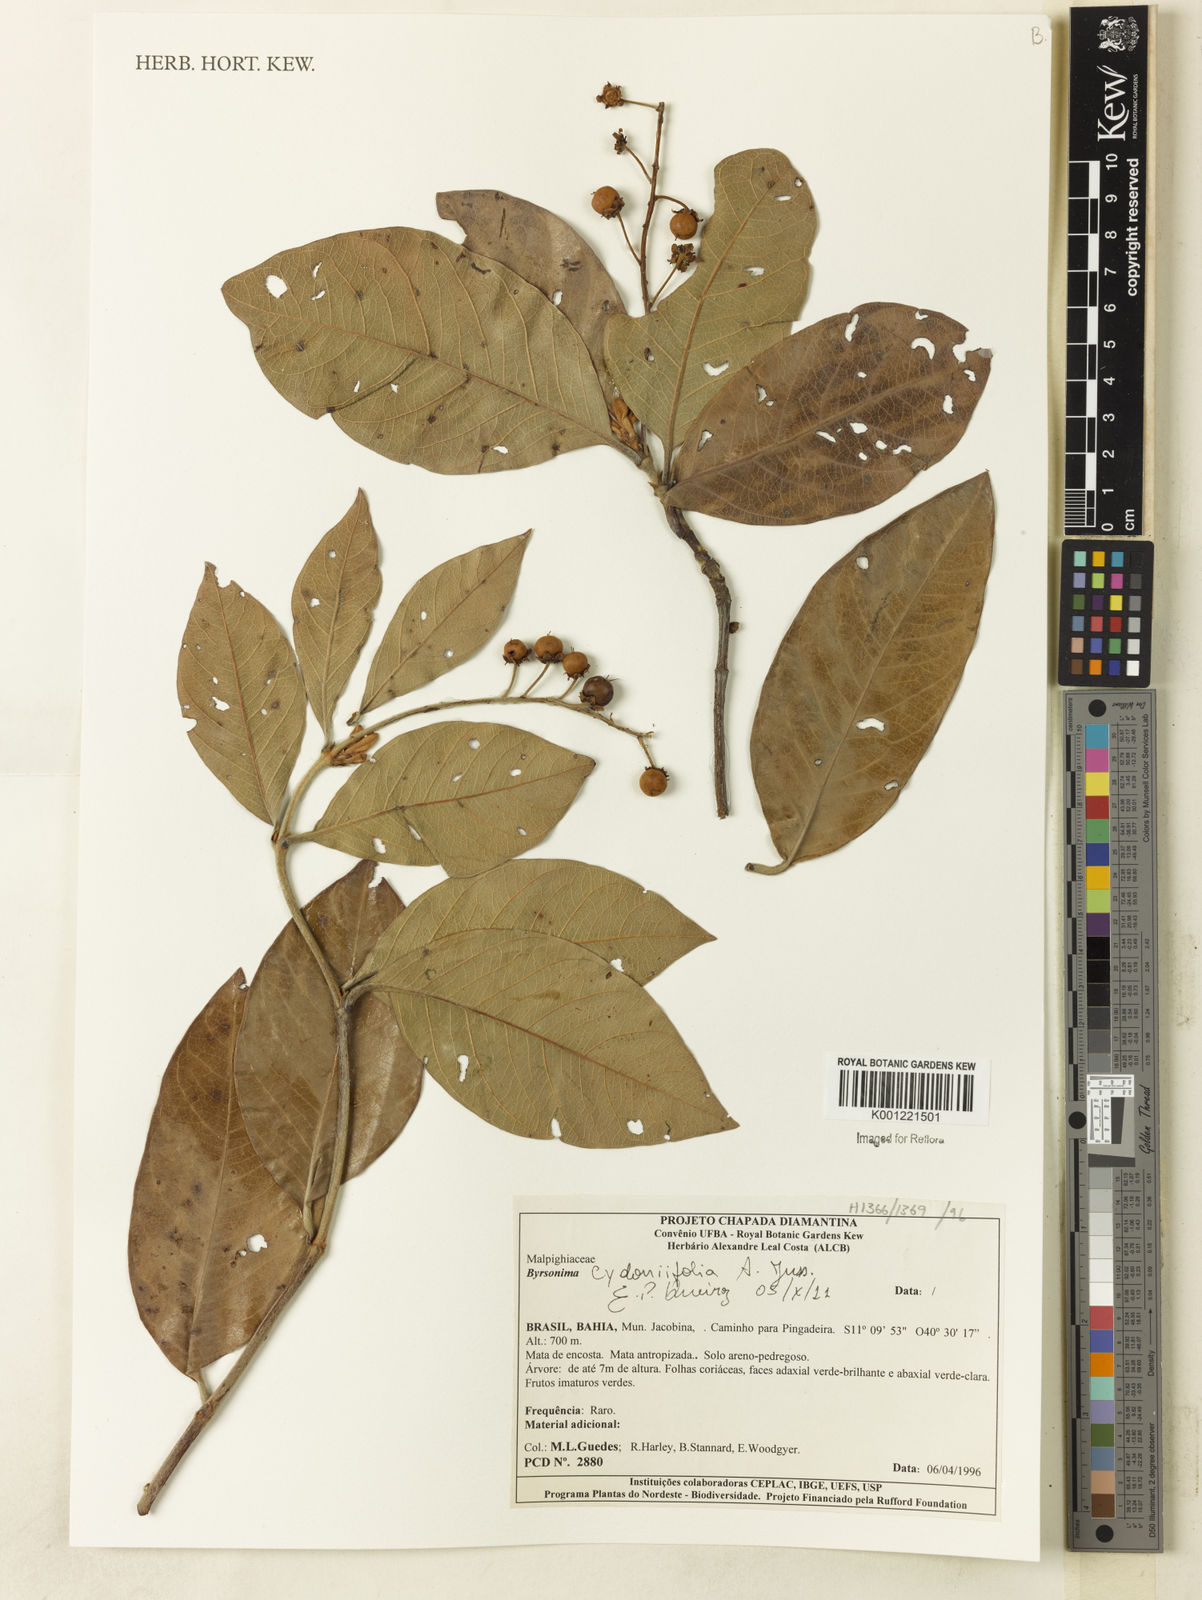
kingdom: Plantae
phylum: Tracheophyta
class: Magnoliopsida
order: Malpighiales
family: Malpighiaceae
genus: Byrsonima
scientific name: Byrsonima cydoniifolia
